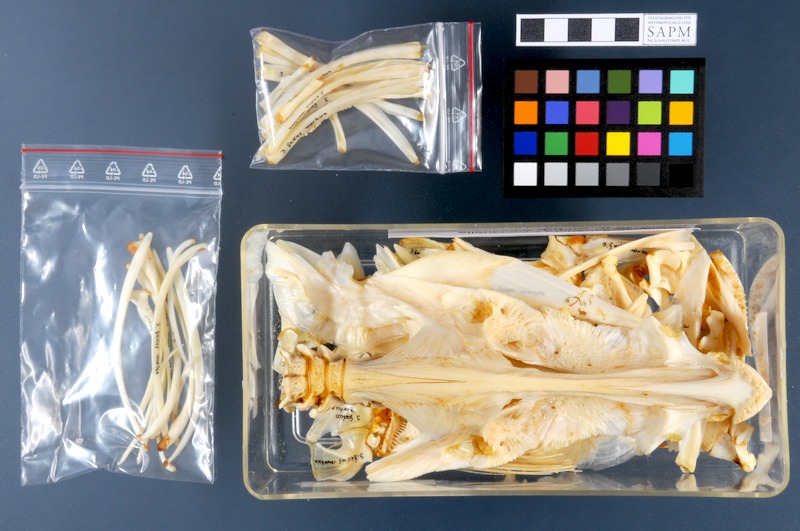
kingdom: Animalia
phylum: Chordata
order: Gadiformes
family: Gadidae
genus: Gadus
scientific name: Gadus morhua
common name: Atlantic cod
